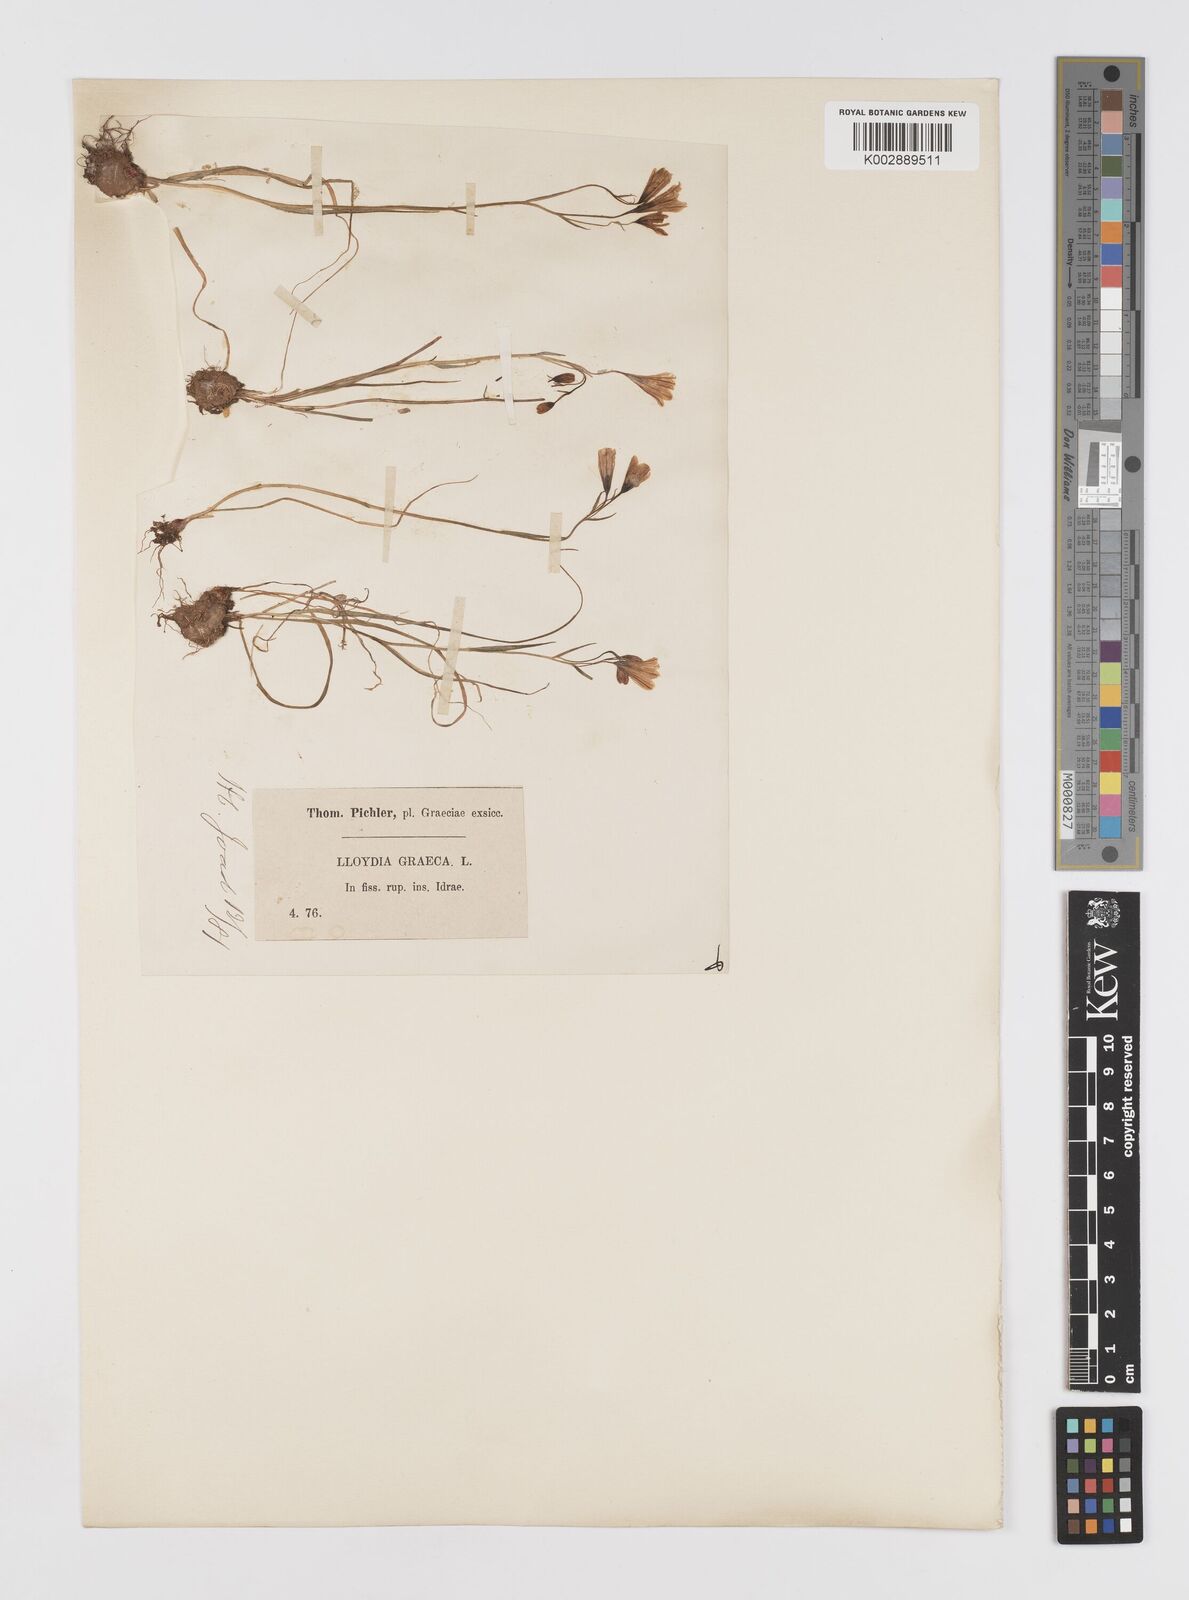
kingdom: Plantae
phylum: Tracheophyta
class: Liliopsida
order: Liliales
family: Liliaceae
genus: Gagea
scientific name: Gagea graeca
